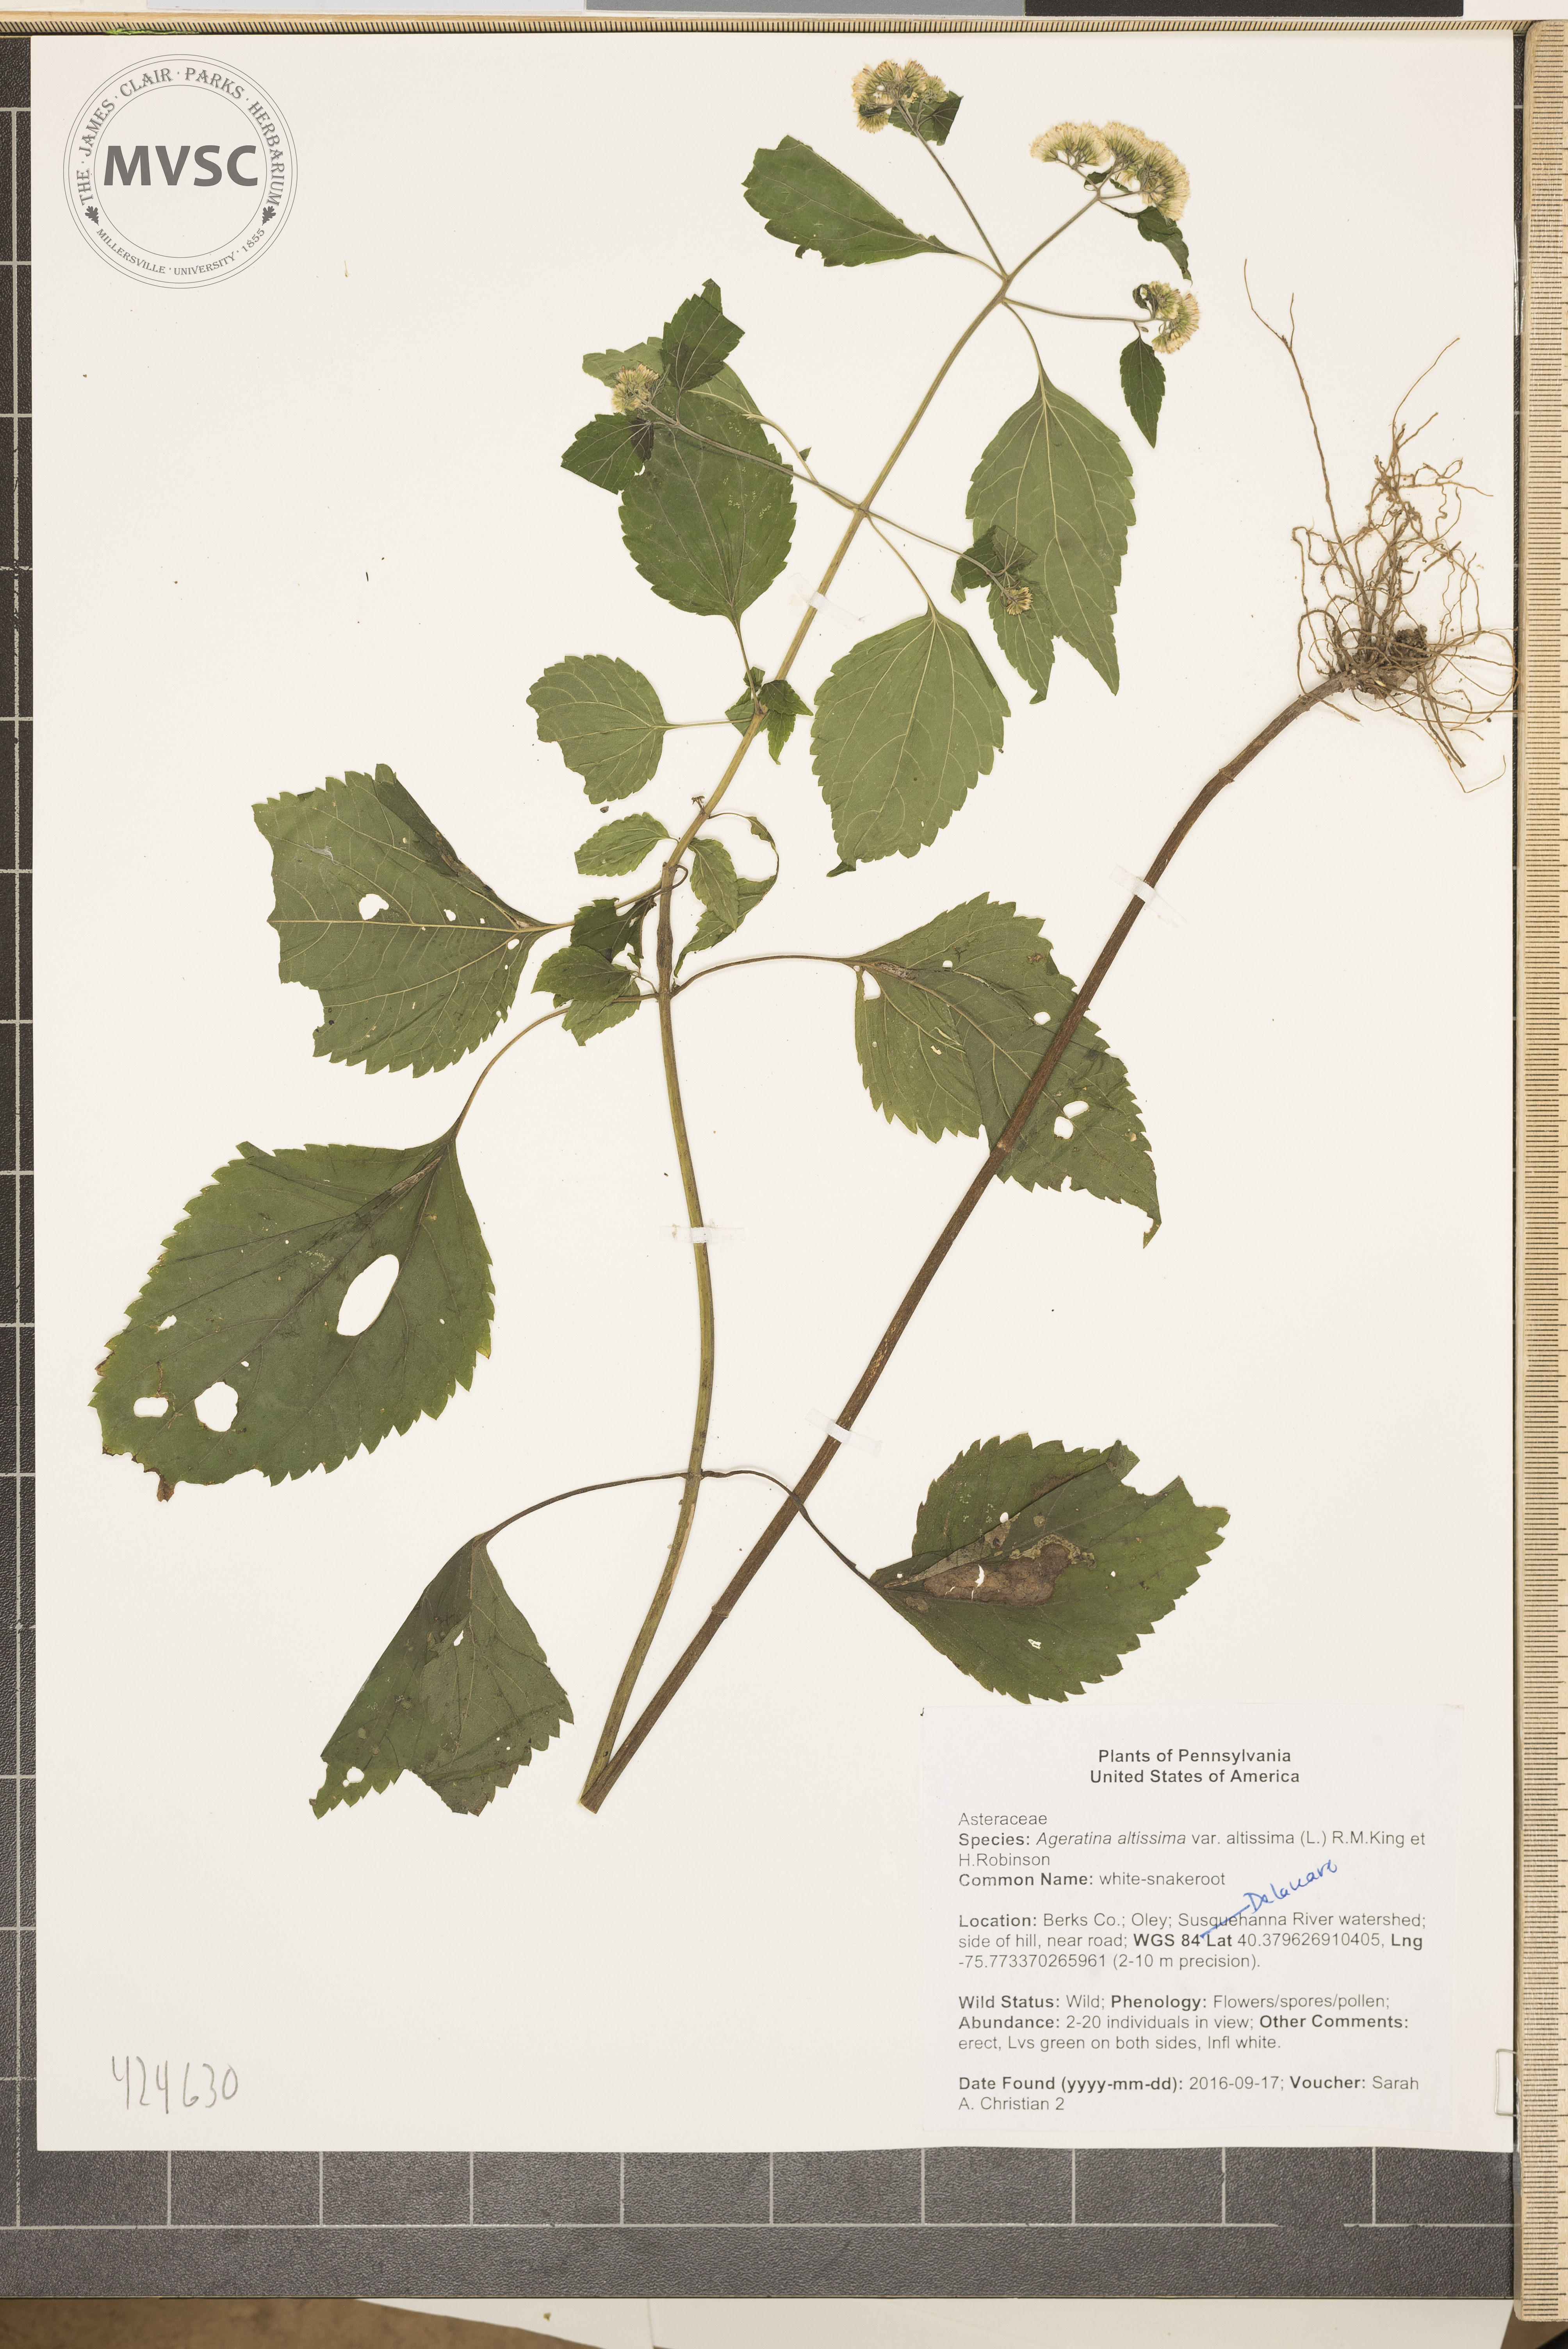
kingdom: Plantae
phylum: Tracheophyta
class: Magnoliopsida
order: Asterales
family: Asteraceae
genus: Ageratina
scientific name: Ageratina altissima
